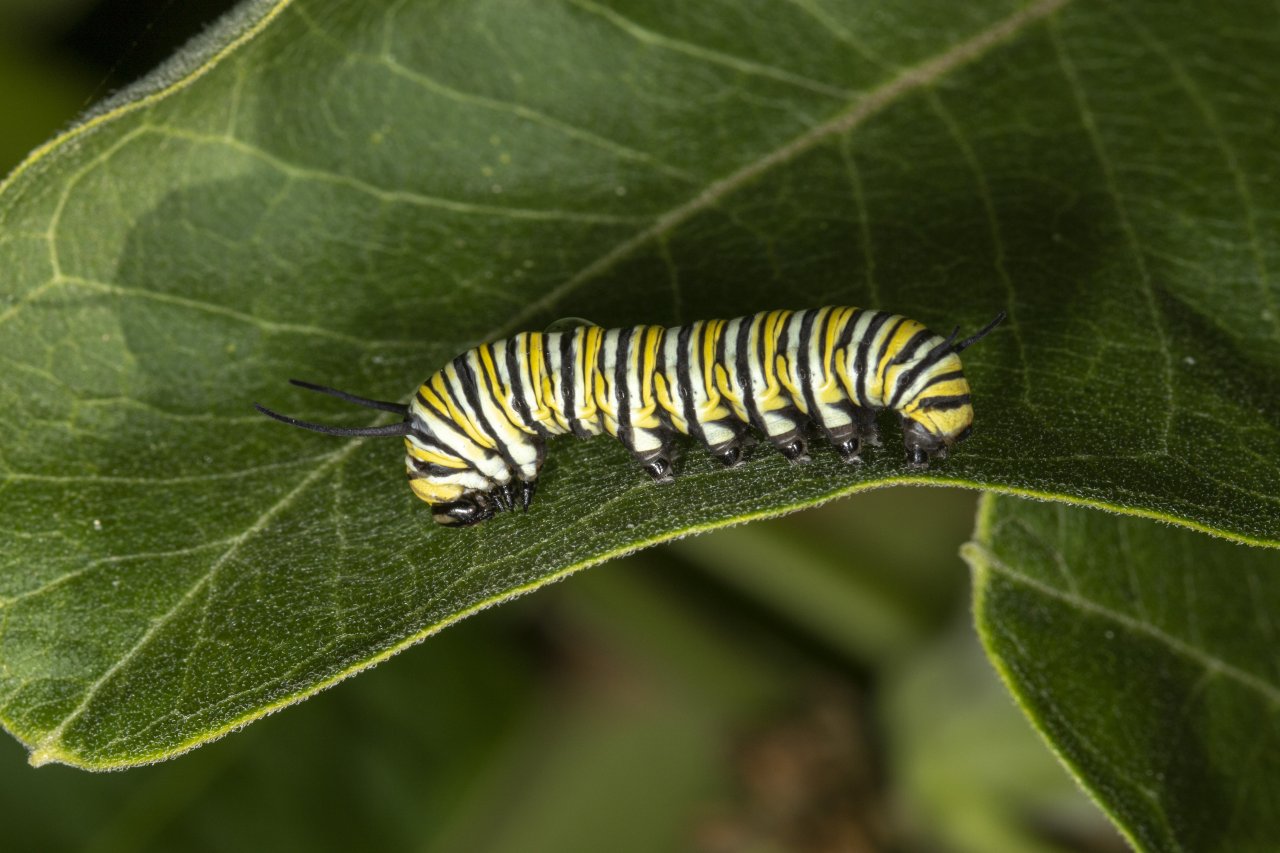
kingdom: Animalia
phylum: Arthropoda
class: Insecta
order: Lepidoptera
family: Nymphalidae
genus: Danaus
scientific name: Danaus plexippus
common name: Monarch
